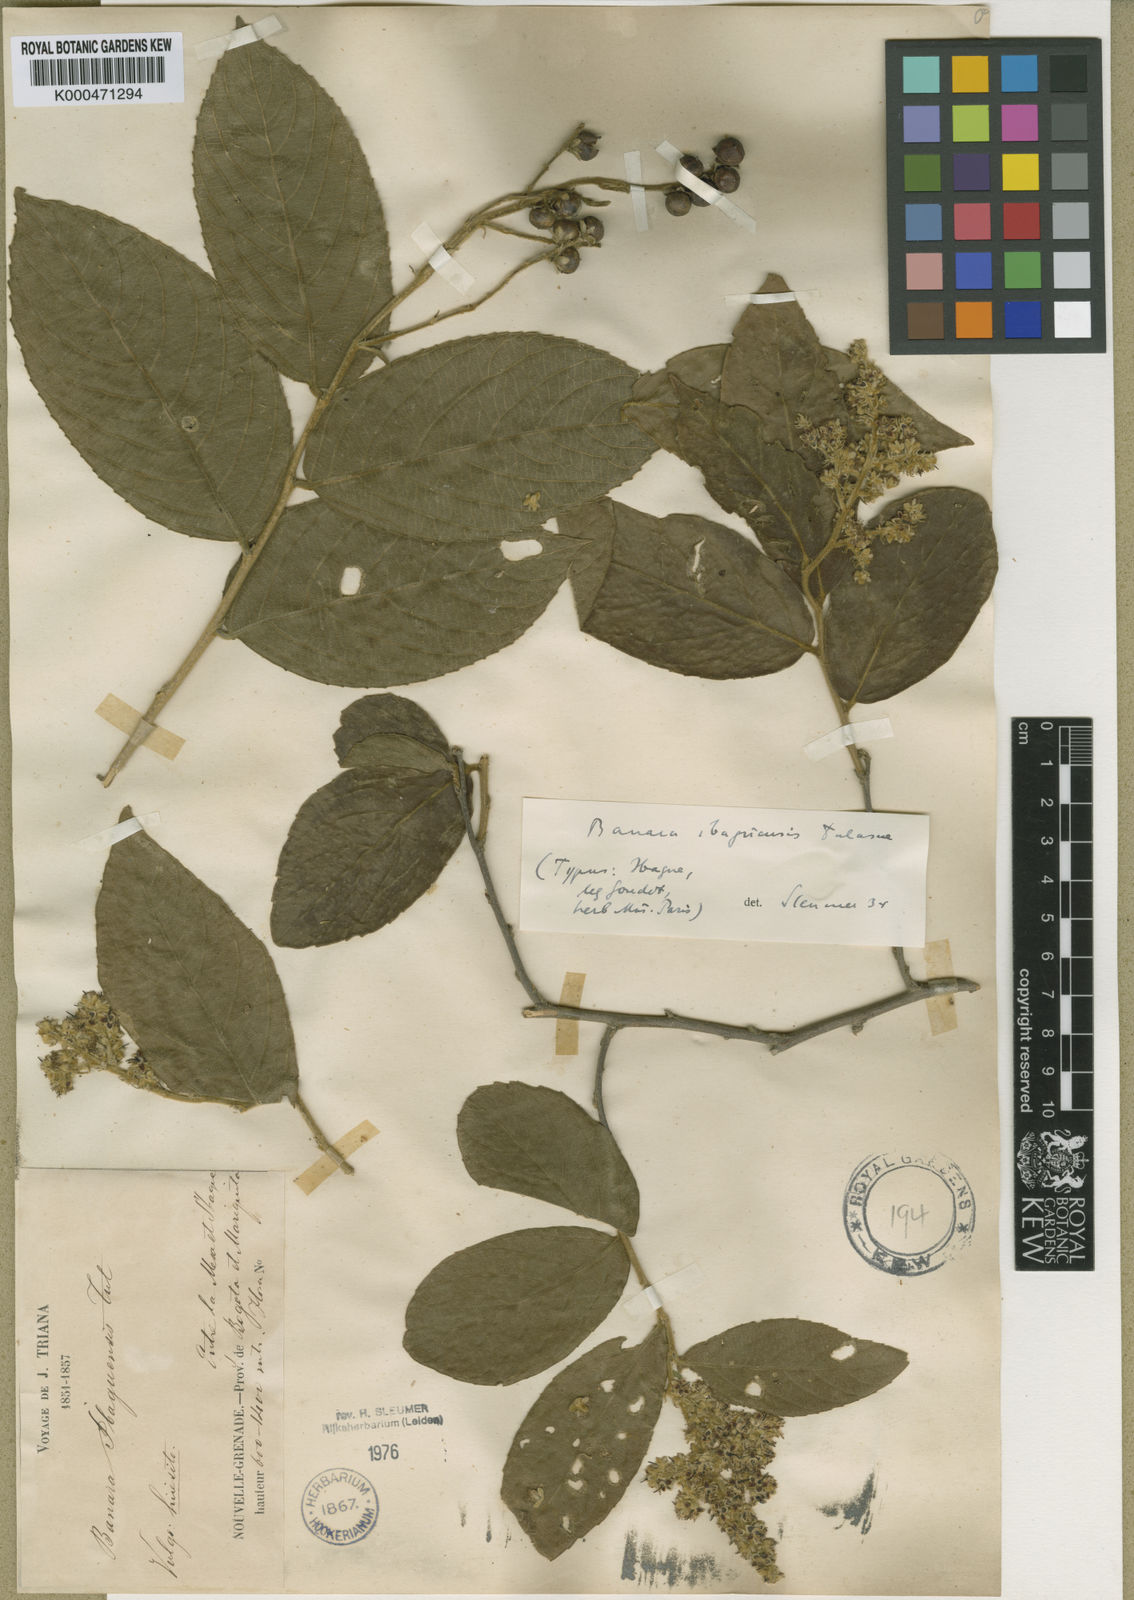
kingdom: Plantae
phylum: Tracheophyta
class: Magnoliopsida
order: Malpighiales
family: Salicaceae
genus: Banara
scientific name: Banara ibaguensis
